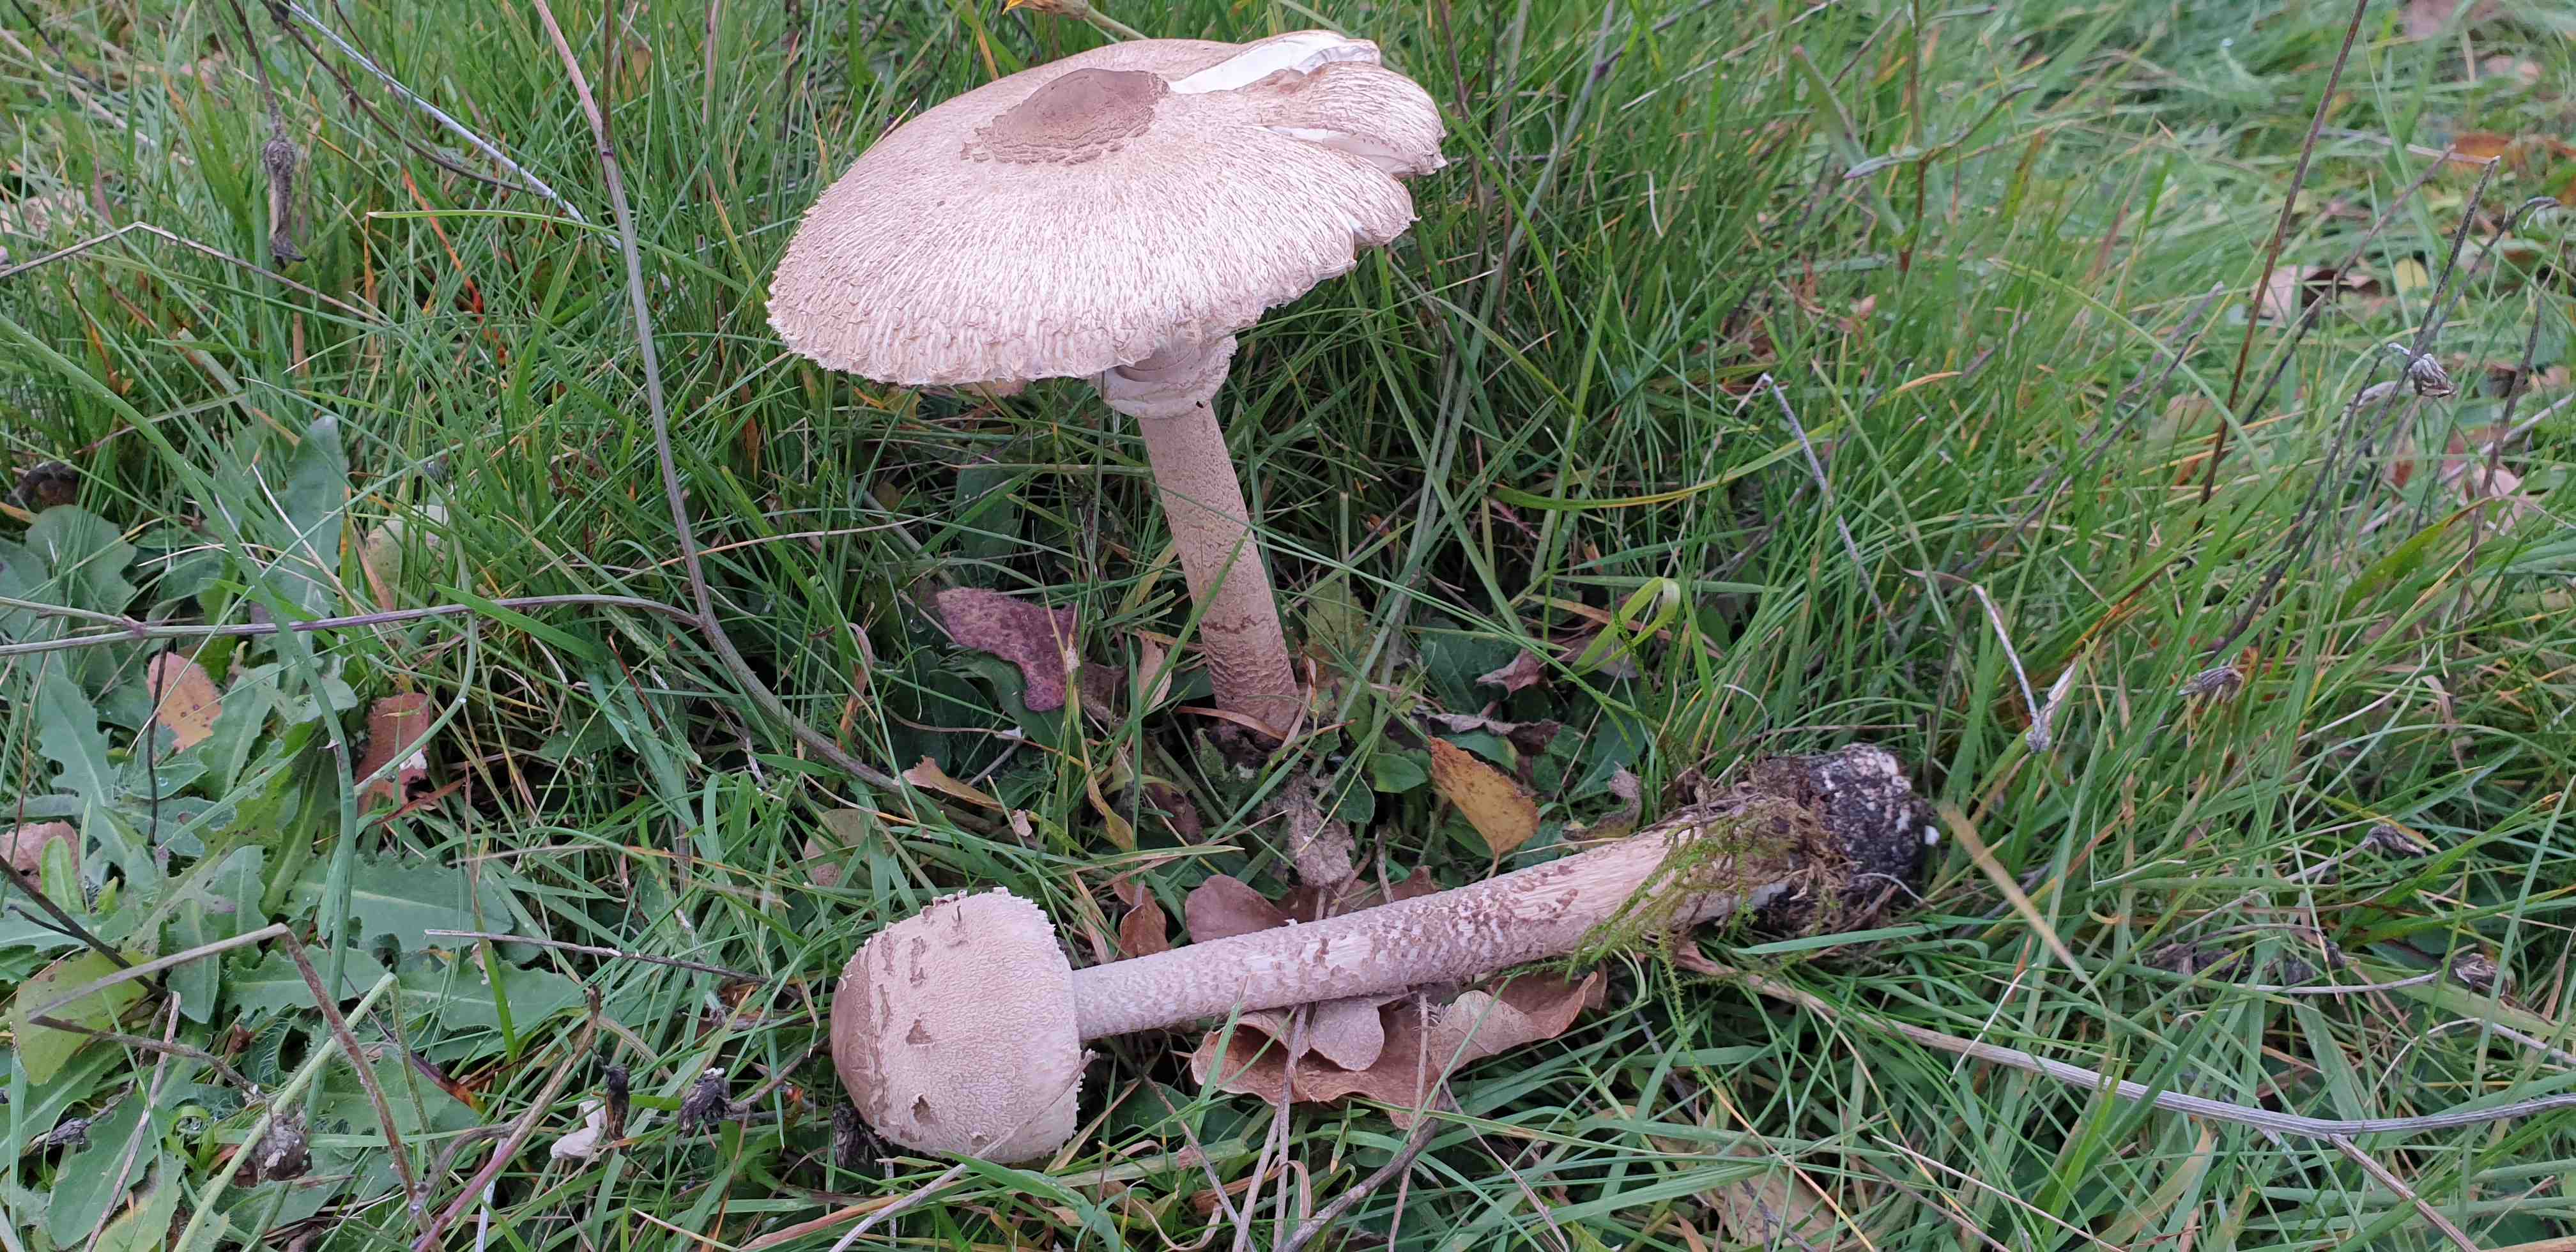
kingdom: Fungi
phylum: Basidiomycota
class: Agaricomycetes
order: Agaricales
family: Agaricaceae
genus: Macrolepiota
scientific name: Macrolepiota procera
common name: stor kæmpeparasolhat
